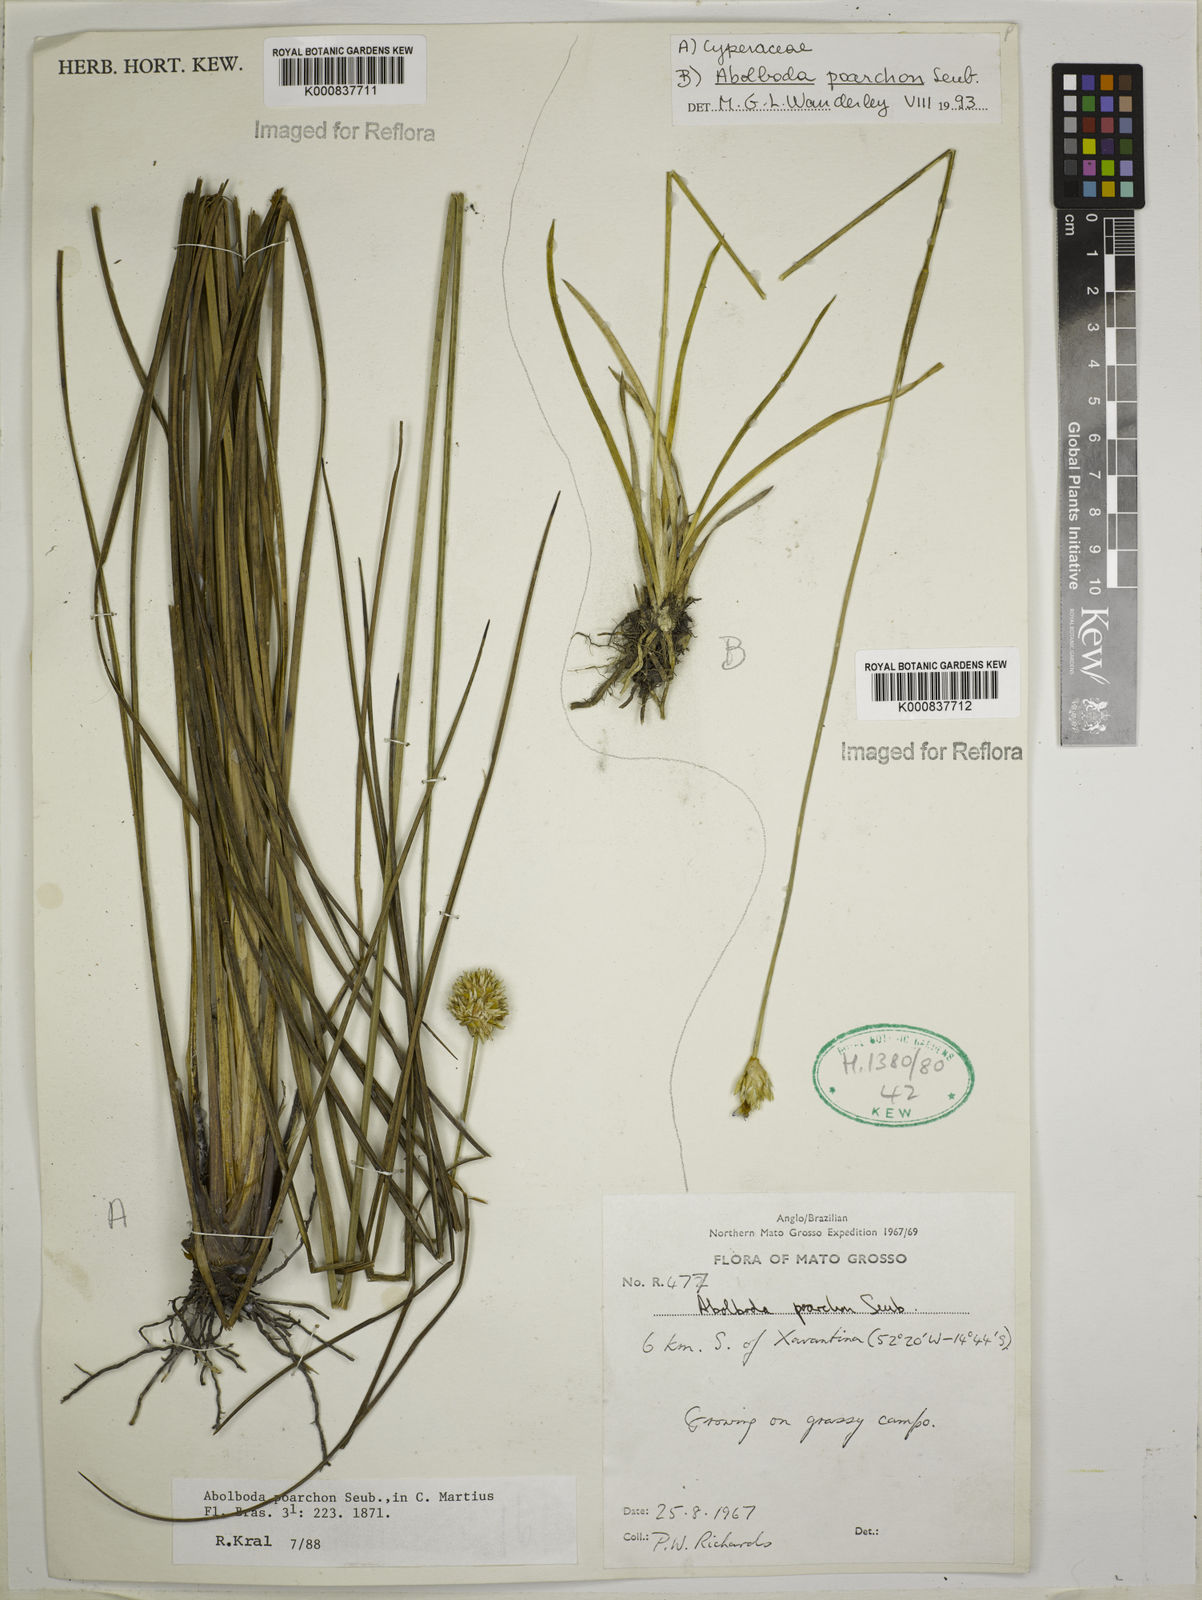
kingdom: Plantae
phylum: Tracheophyta
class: Liliopsida
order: Poales
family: Xyridaceae
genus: Abolboda
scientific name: Abolboda poarchon
